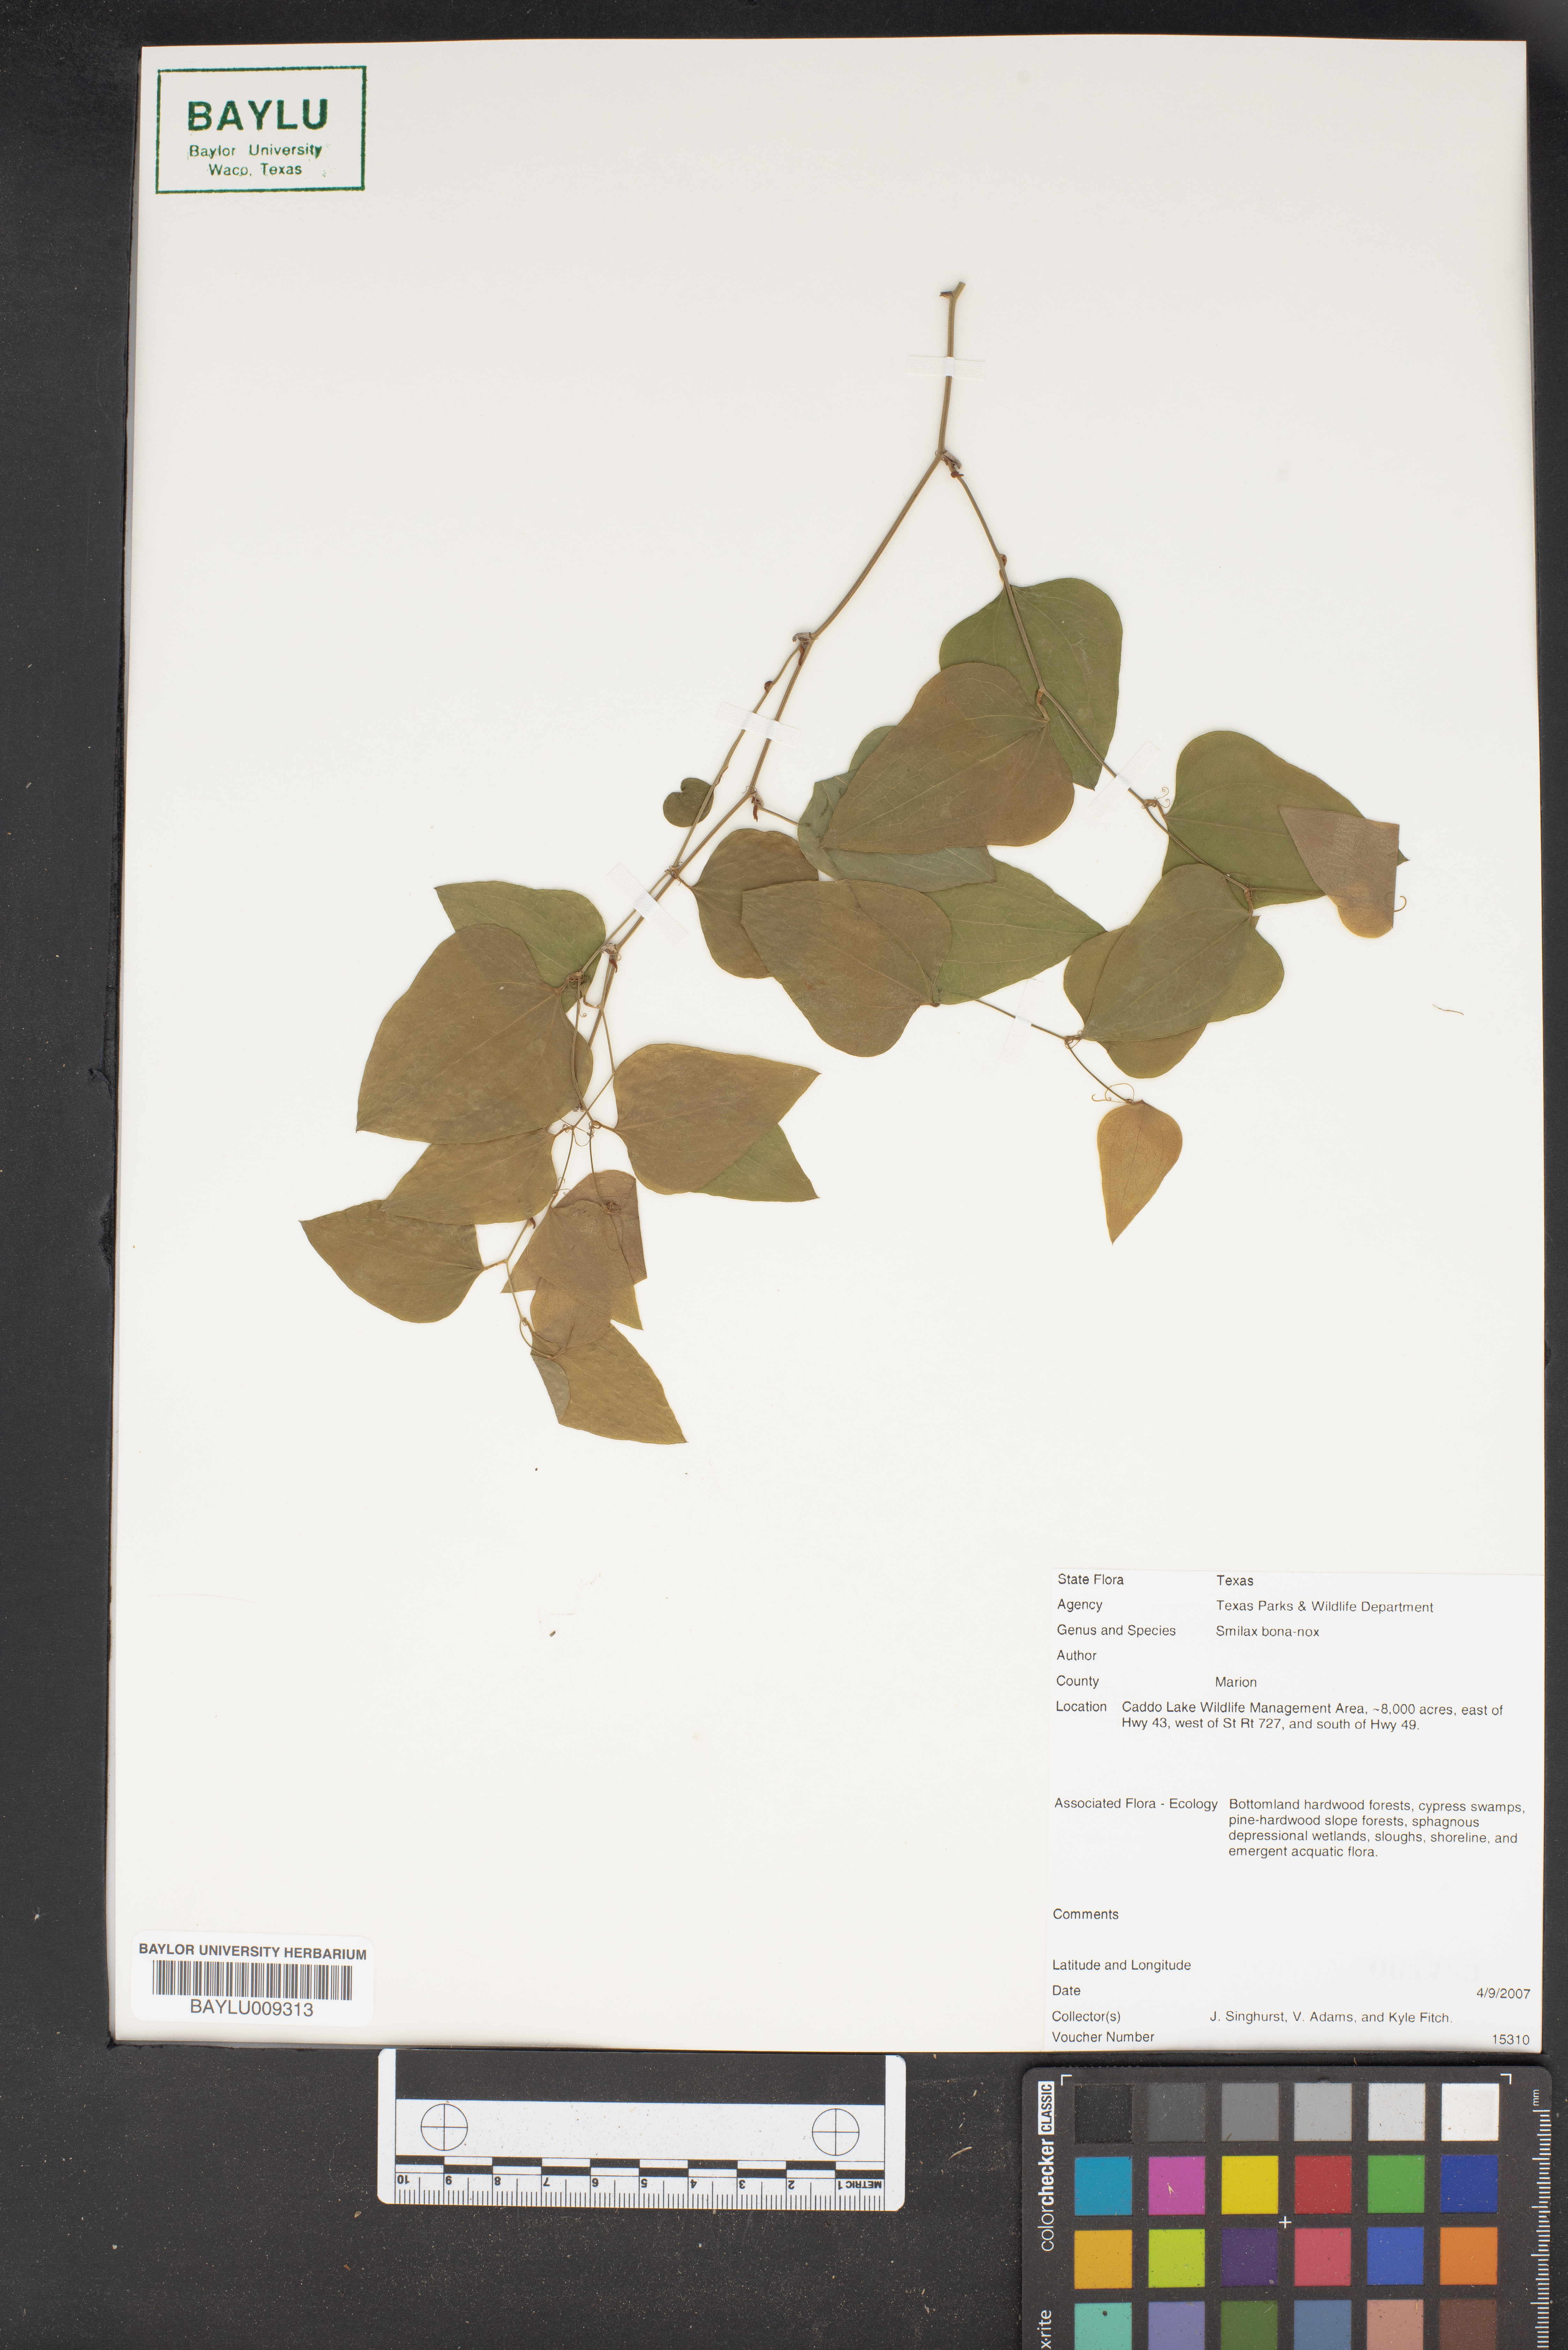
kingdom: Plantae
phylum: Tracheophyta
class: Liliopsida
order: Liliales
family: Smilacaceae
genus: Smilax
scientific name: Smilax bona-nox
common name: Catbrier
